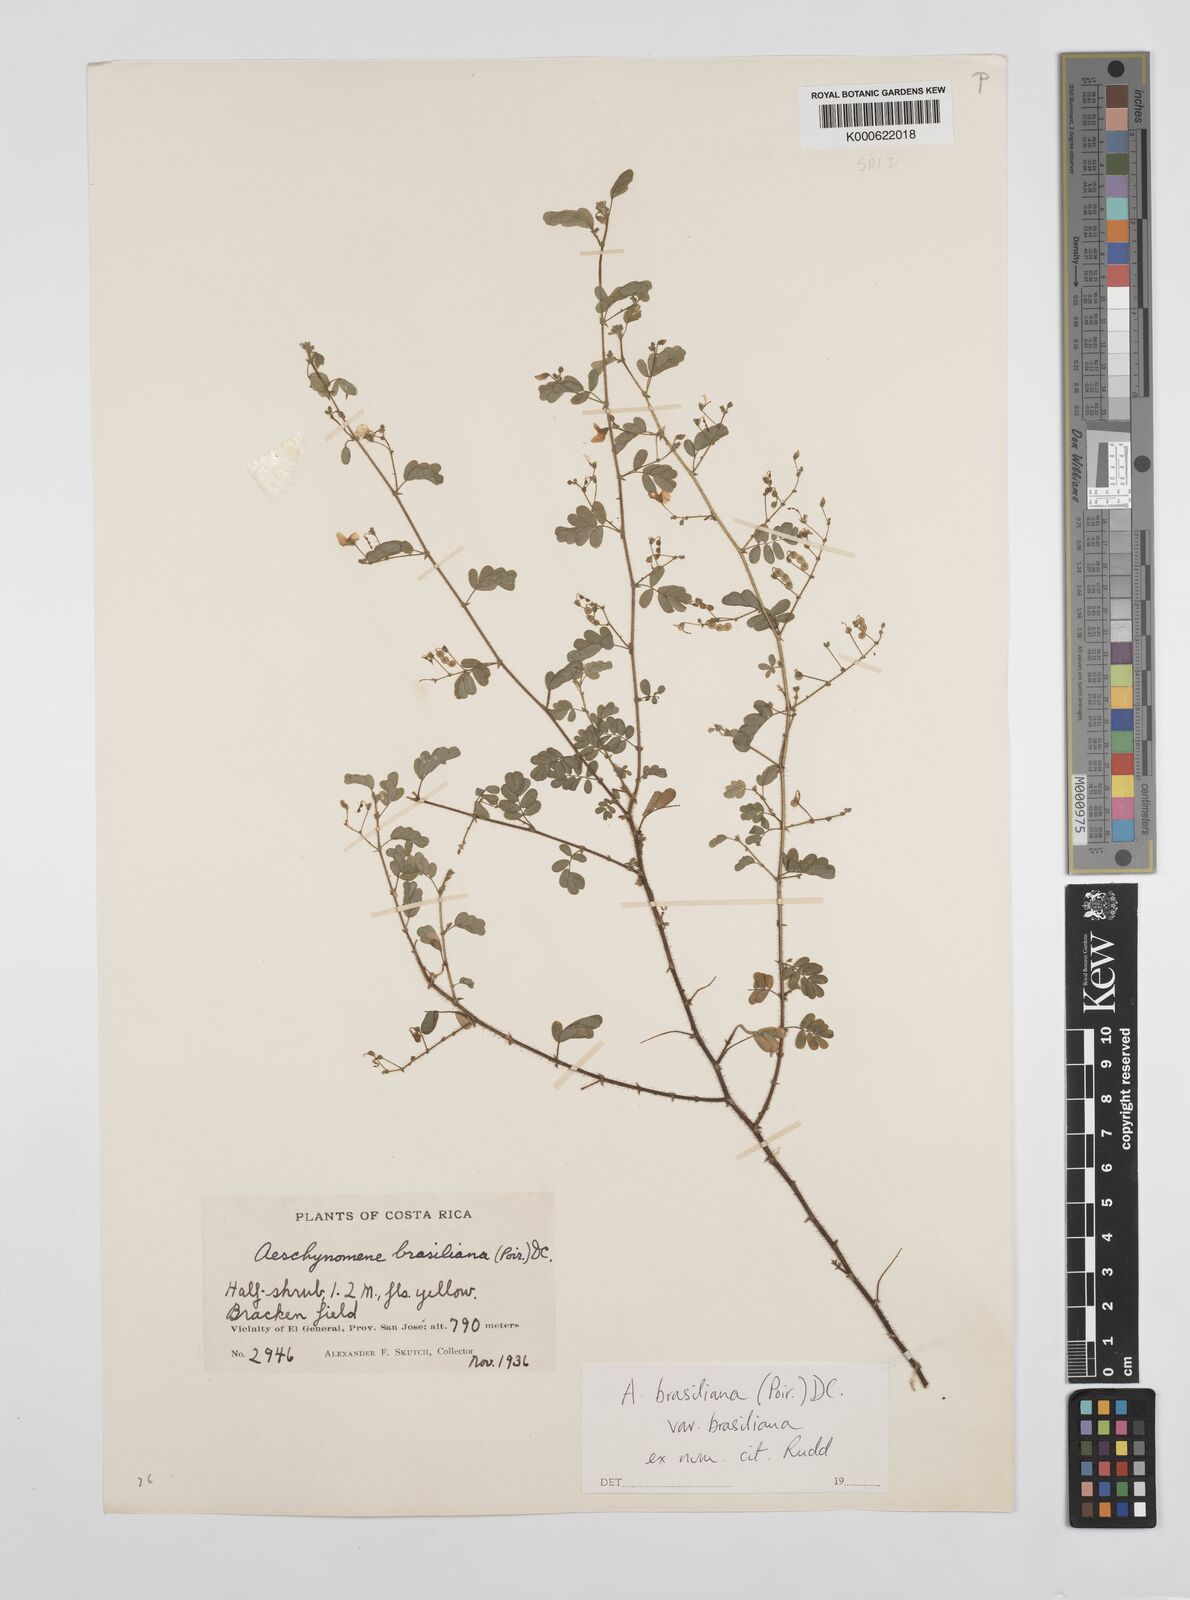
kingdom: Plantae
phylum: Tracheophyta
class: Magnoliopsida
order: Fabales
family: Fabaceae
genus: Aeschynomene
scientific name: Aeschynomene
